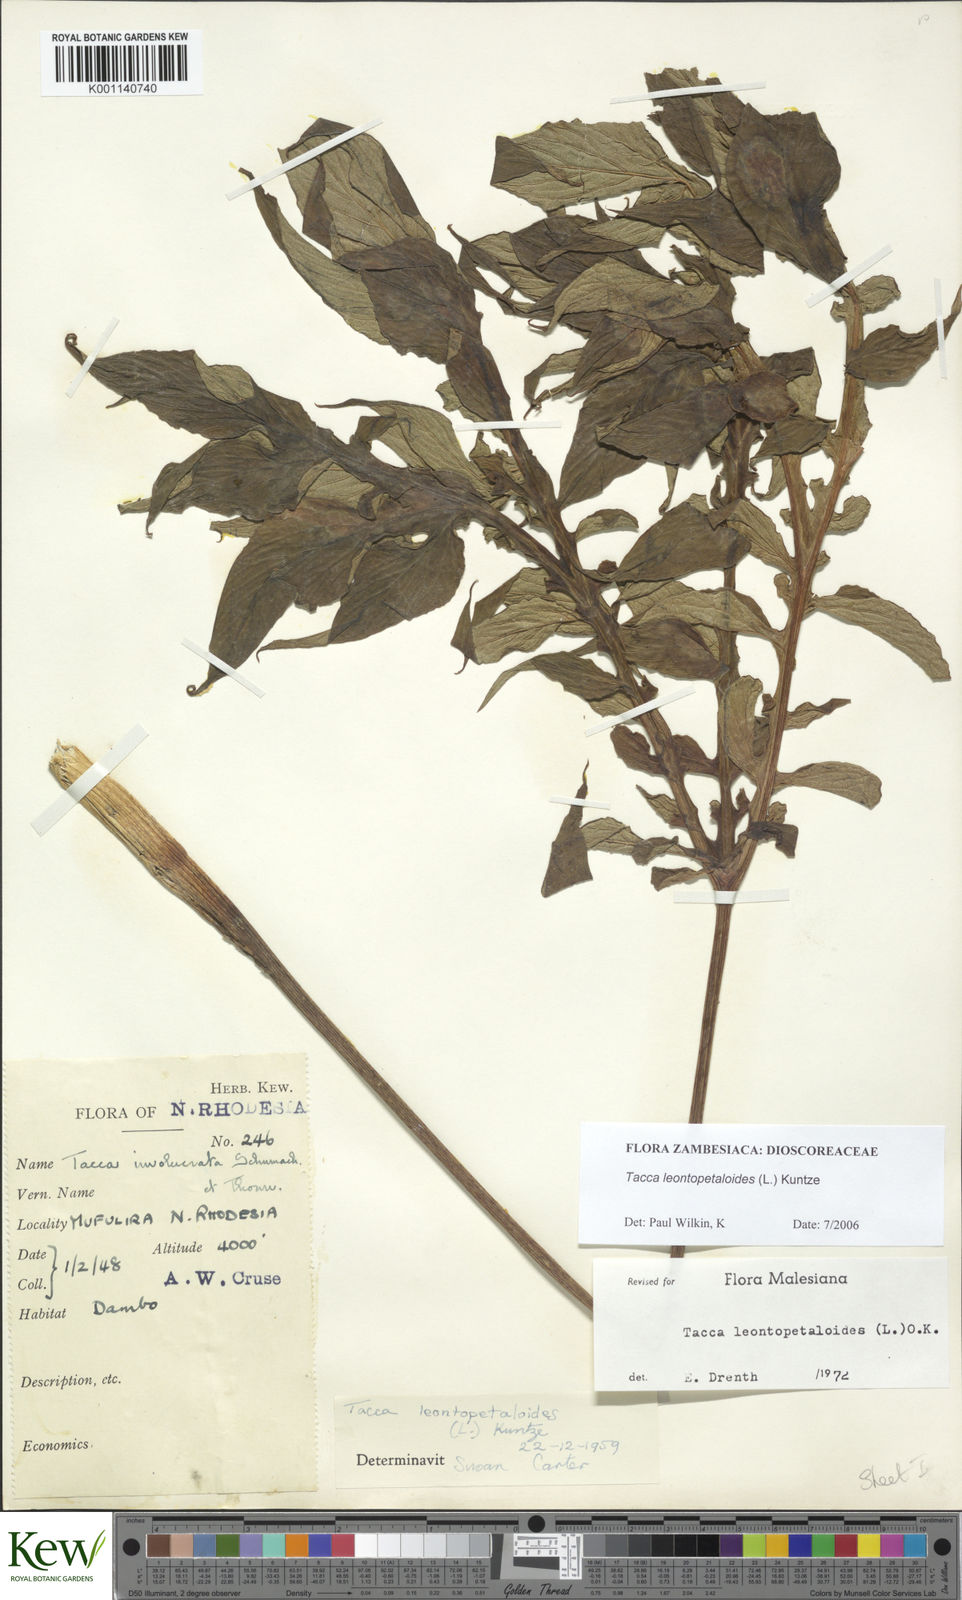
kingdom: Plantae
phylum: Tracheophyta
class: Liliopsida
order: Dioscoreales
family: Dioscoreaceae
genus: Tacca
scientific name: Tacca leontopetaloides
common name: Arrowroot
